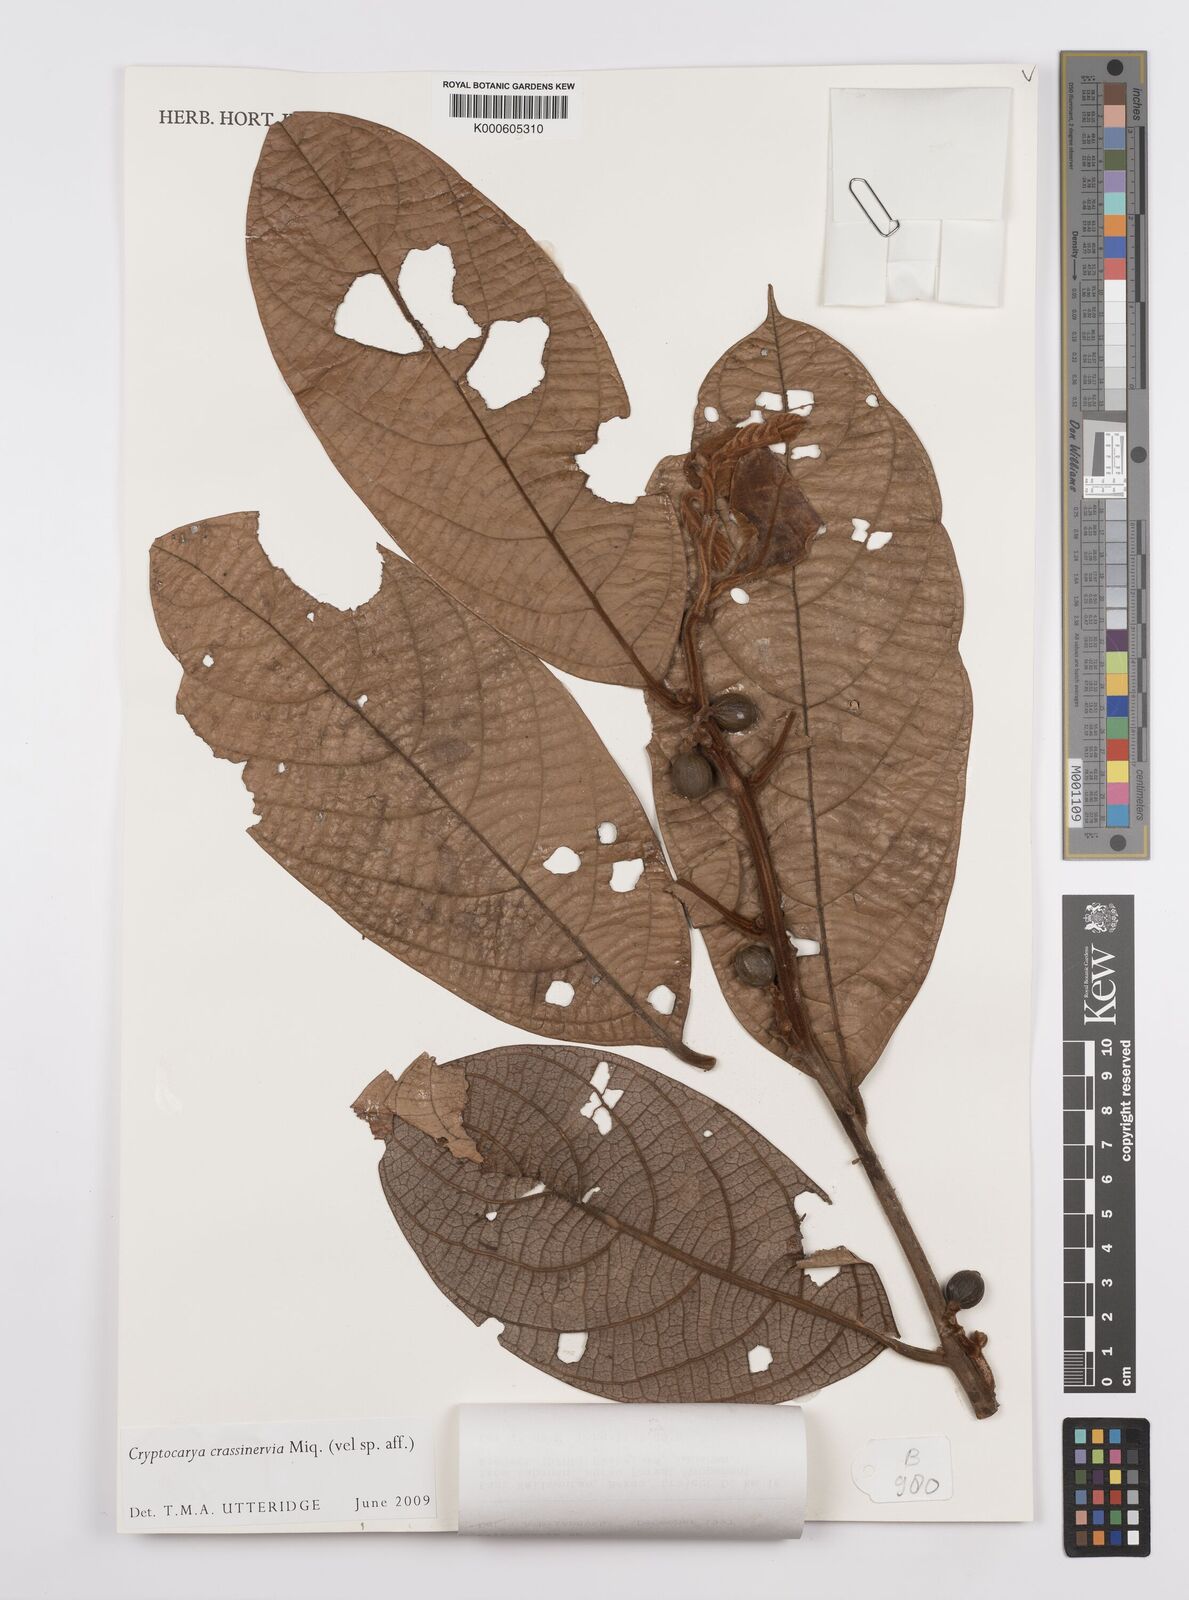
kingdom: Plantae
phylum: Tracheophyta
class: Magnoliopsida
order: Laurales
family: Lauraceae
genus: Cryptocarya
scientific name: Cryptocarya diversifolia
